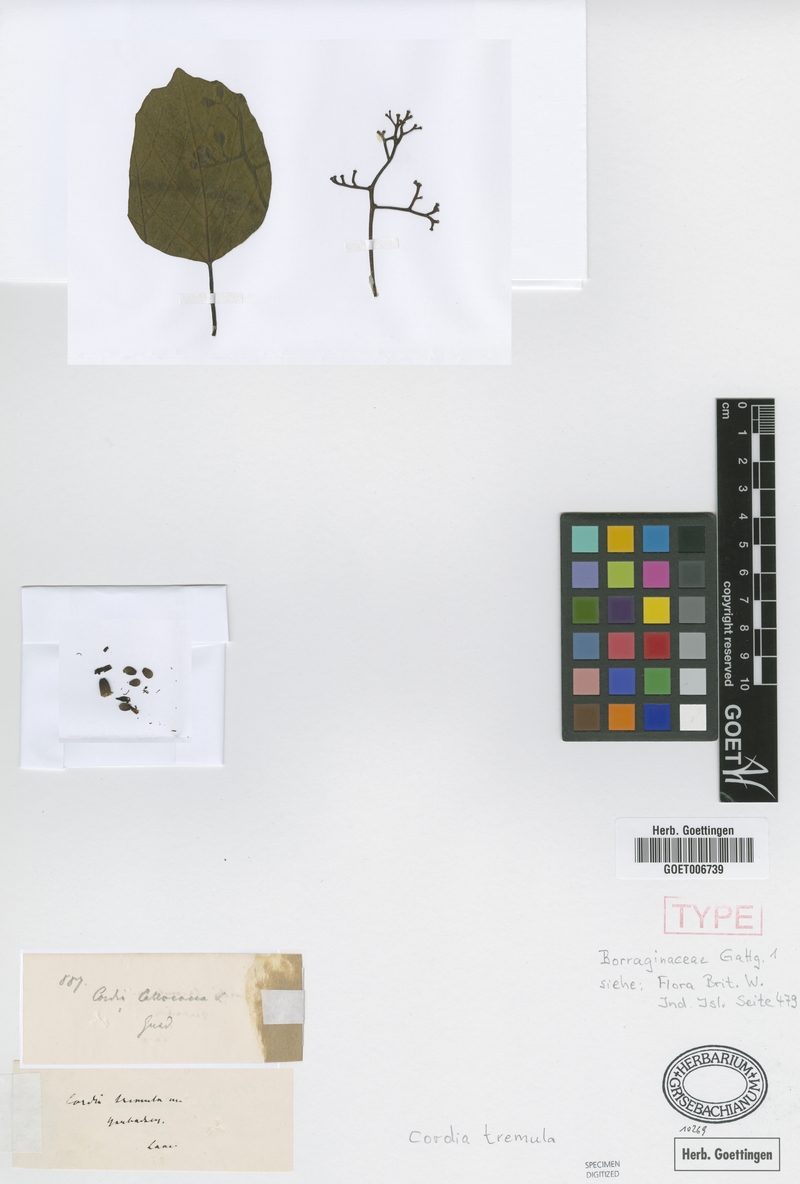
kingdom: Plantae
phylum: Tracheophyta
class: Magnoliopsida
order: Boraginales
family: Cordiaceae
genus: Cordia
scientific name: Cordia dichotoma
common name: Fragrant manjack
